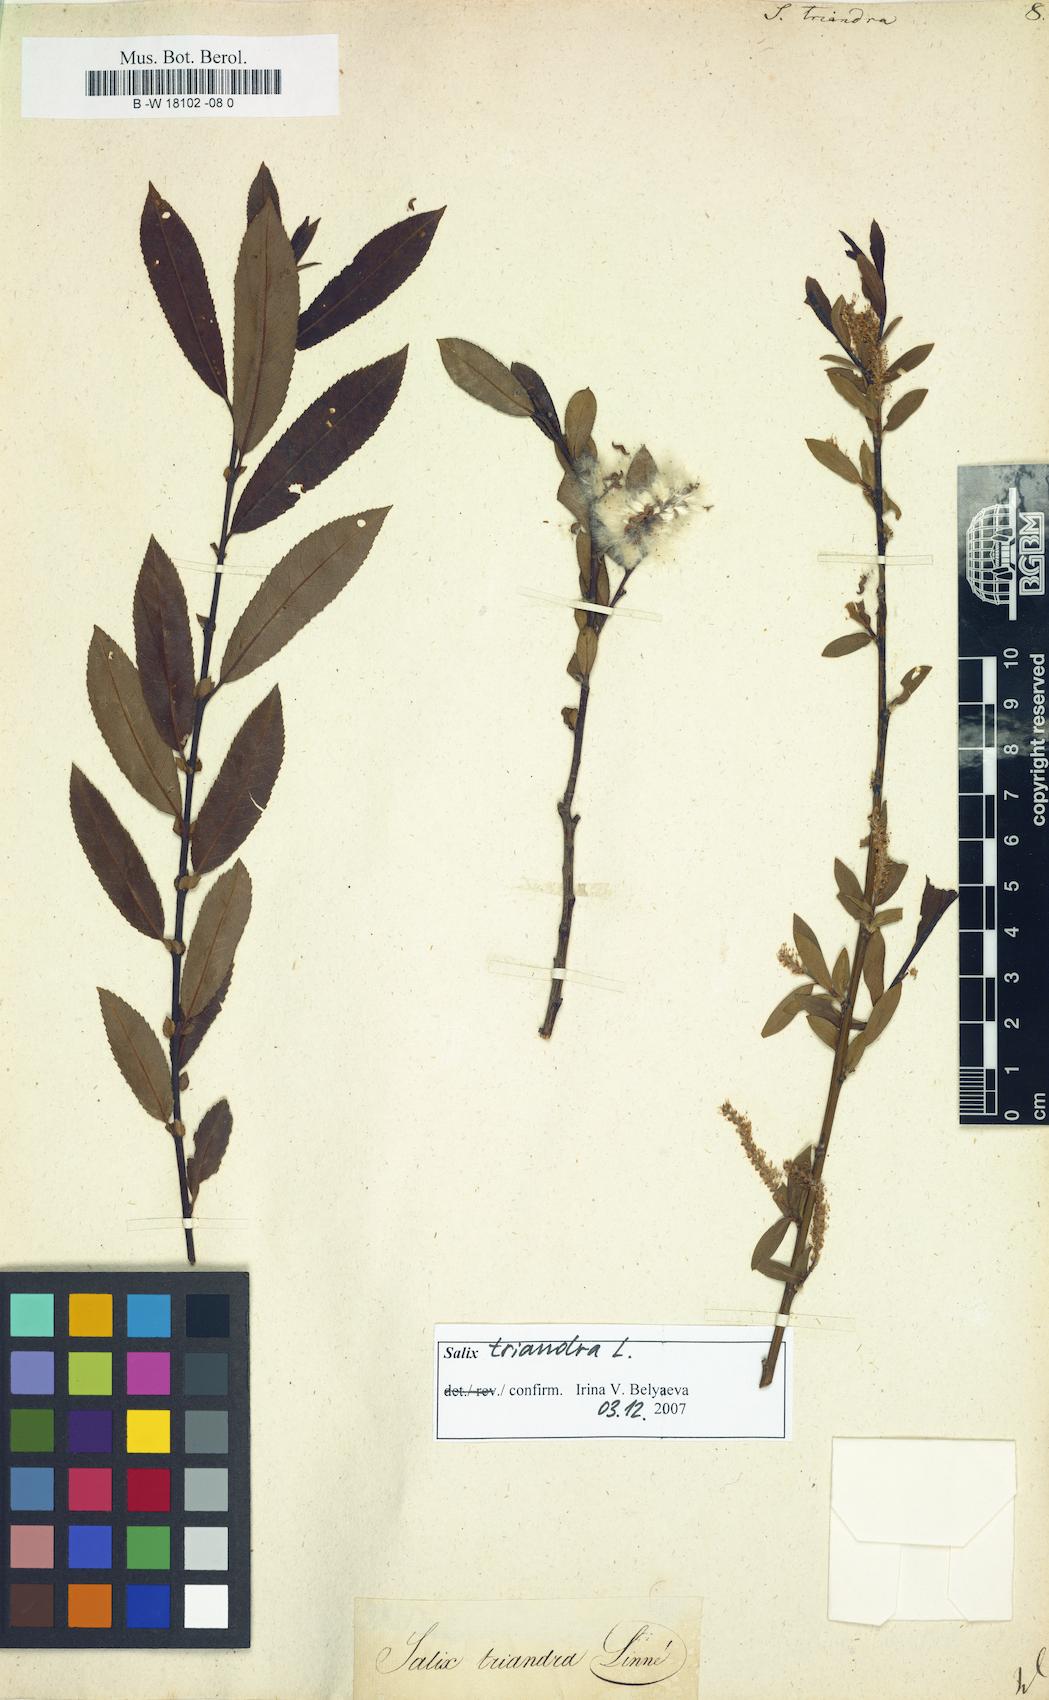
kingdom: Plantae
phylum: Tracheophyta
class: Magnoliopsida
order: Malpighiales
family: Salicaceae
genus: Salix
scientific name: Salix triandra
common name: Almond willow
